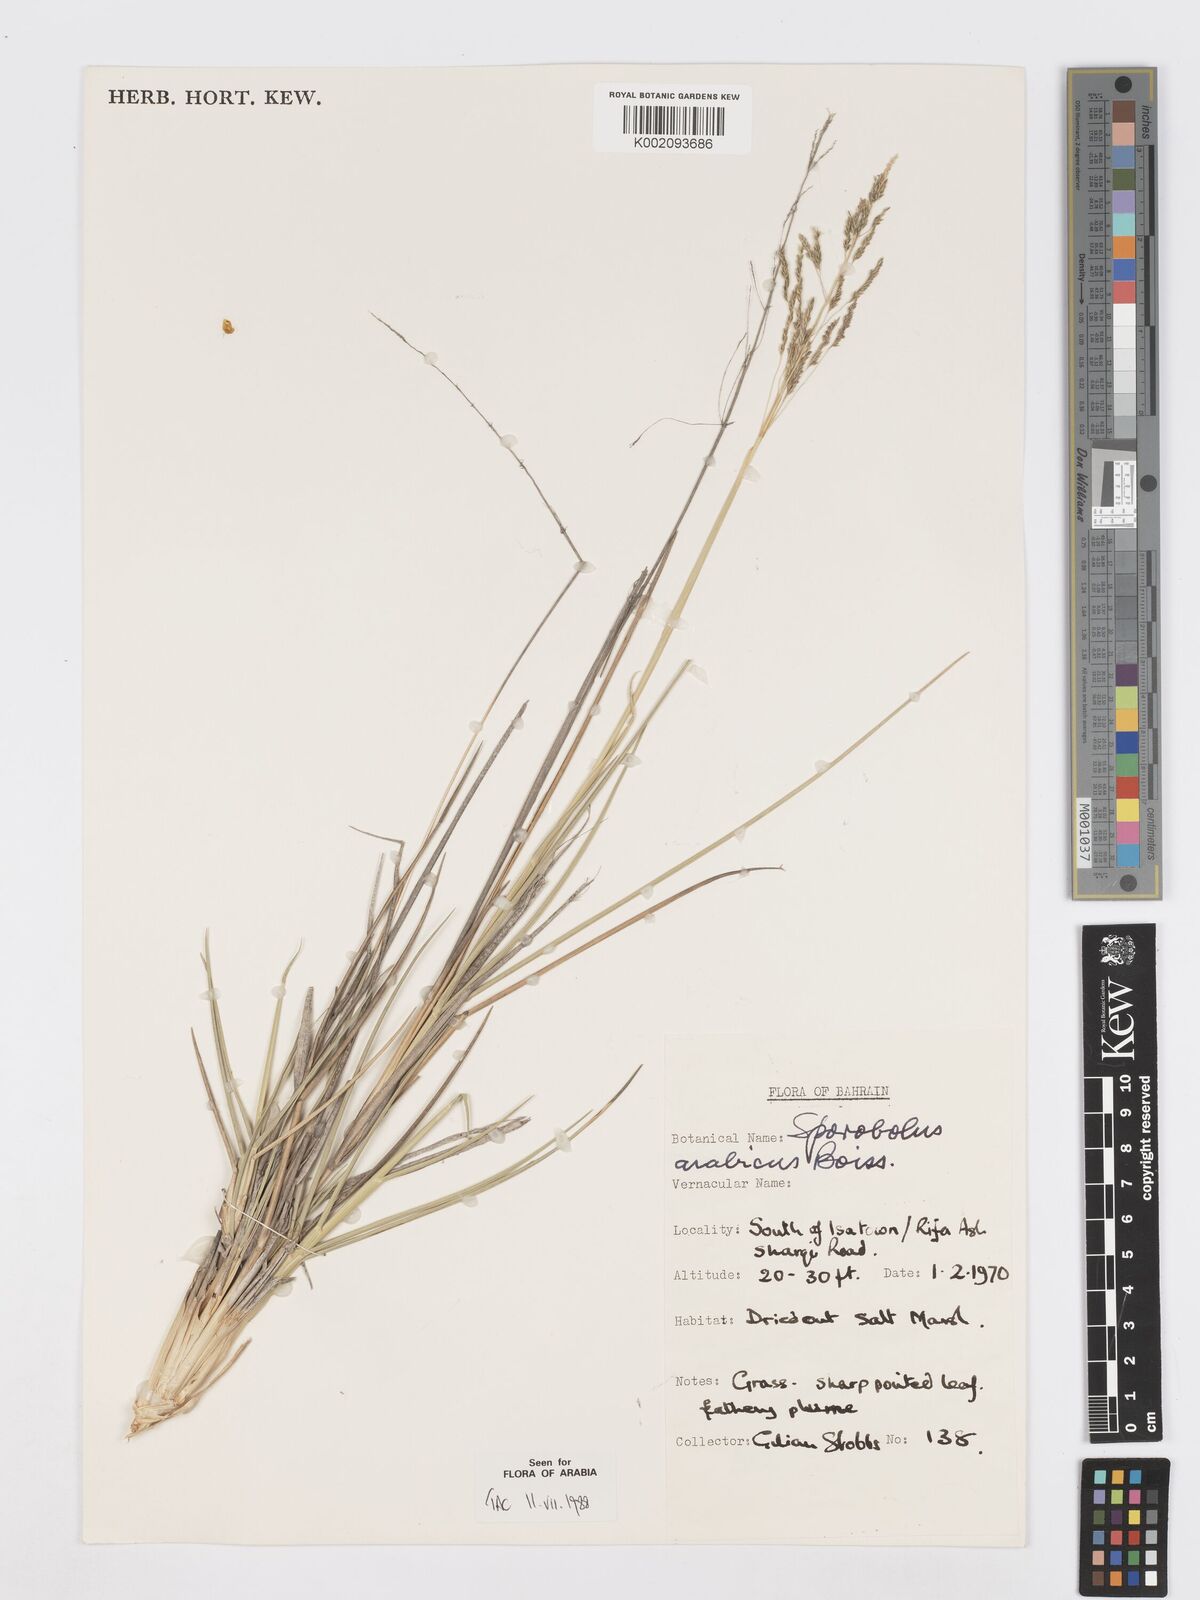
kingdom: Plantae
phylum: Tracheophyta
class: Liliopsida
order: Poales
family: Poaceae
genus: Sporobolus
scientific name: Sporobolus ioclados
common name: Pan dropseed
